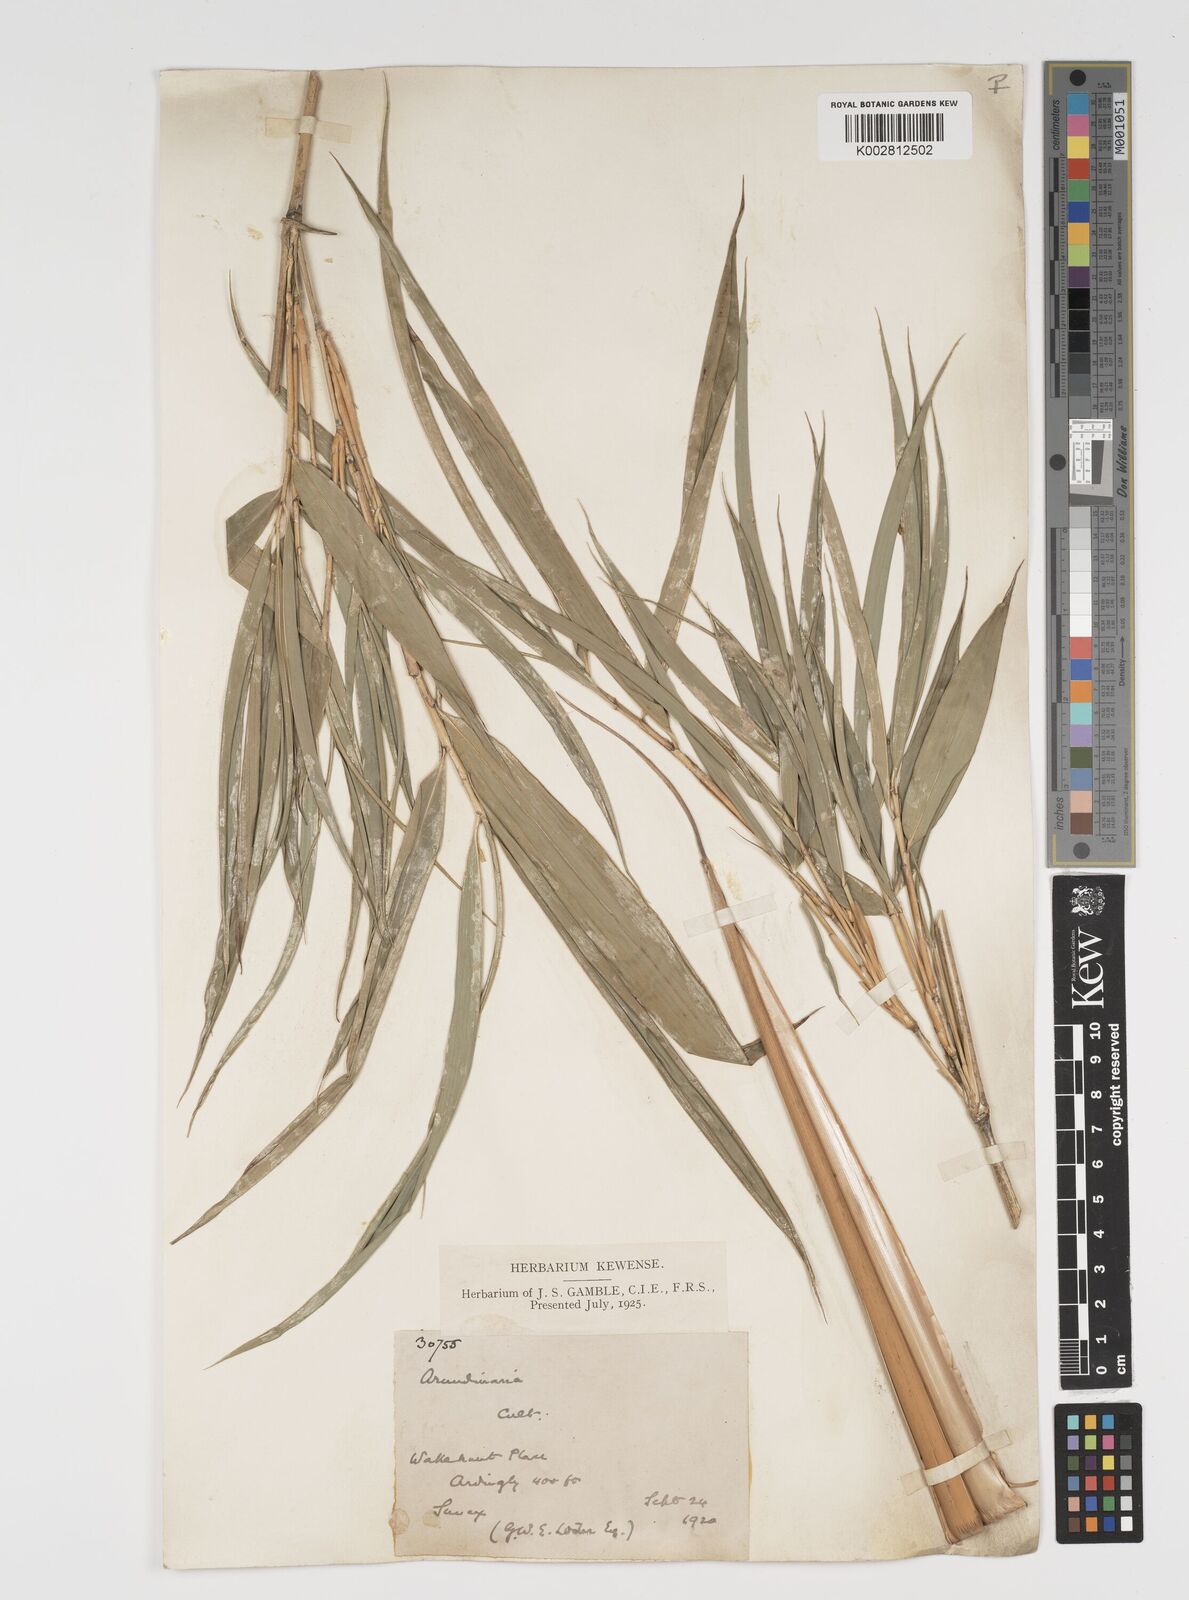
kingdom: Plantae
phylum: Tracheophyta
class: Liliopsida
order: Poales
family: Poaceae
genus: Arundinaria
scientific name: Arundinaria
